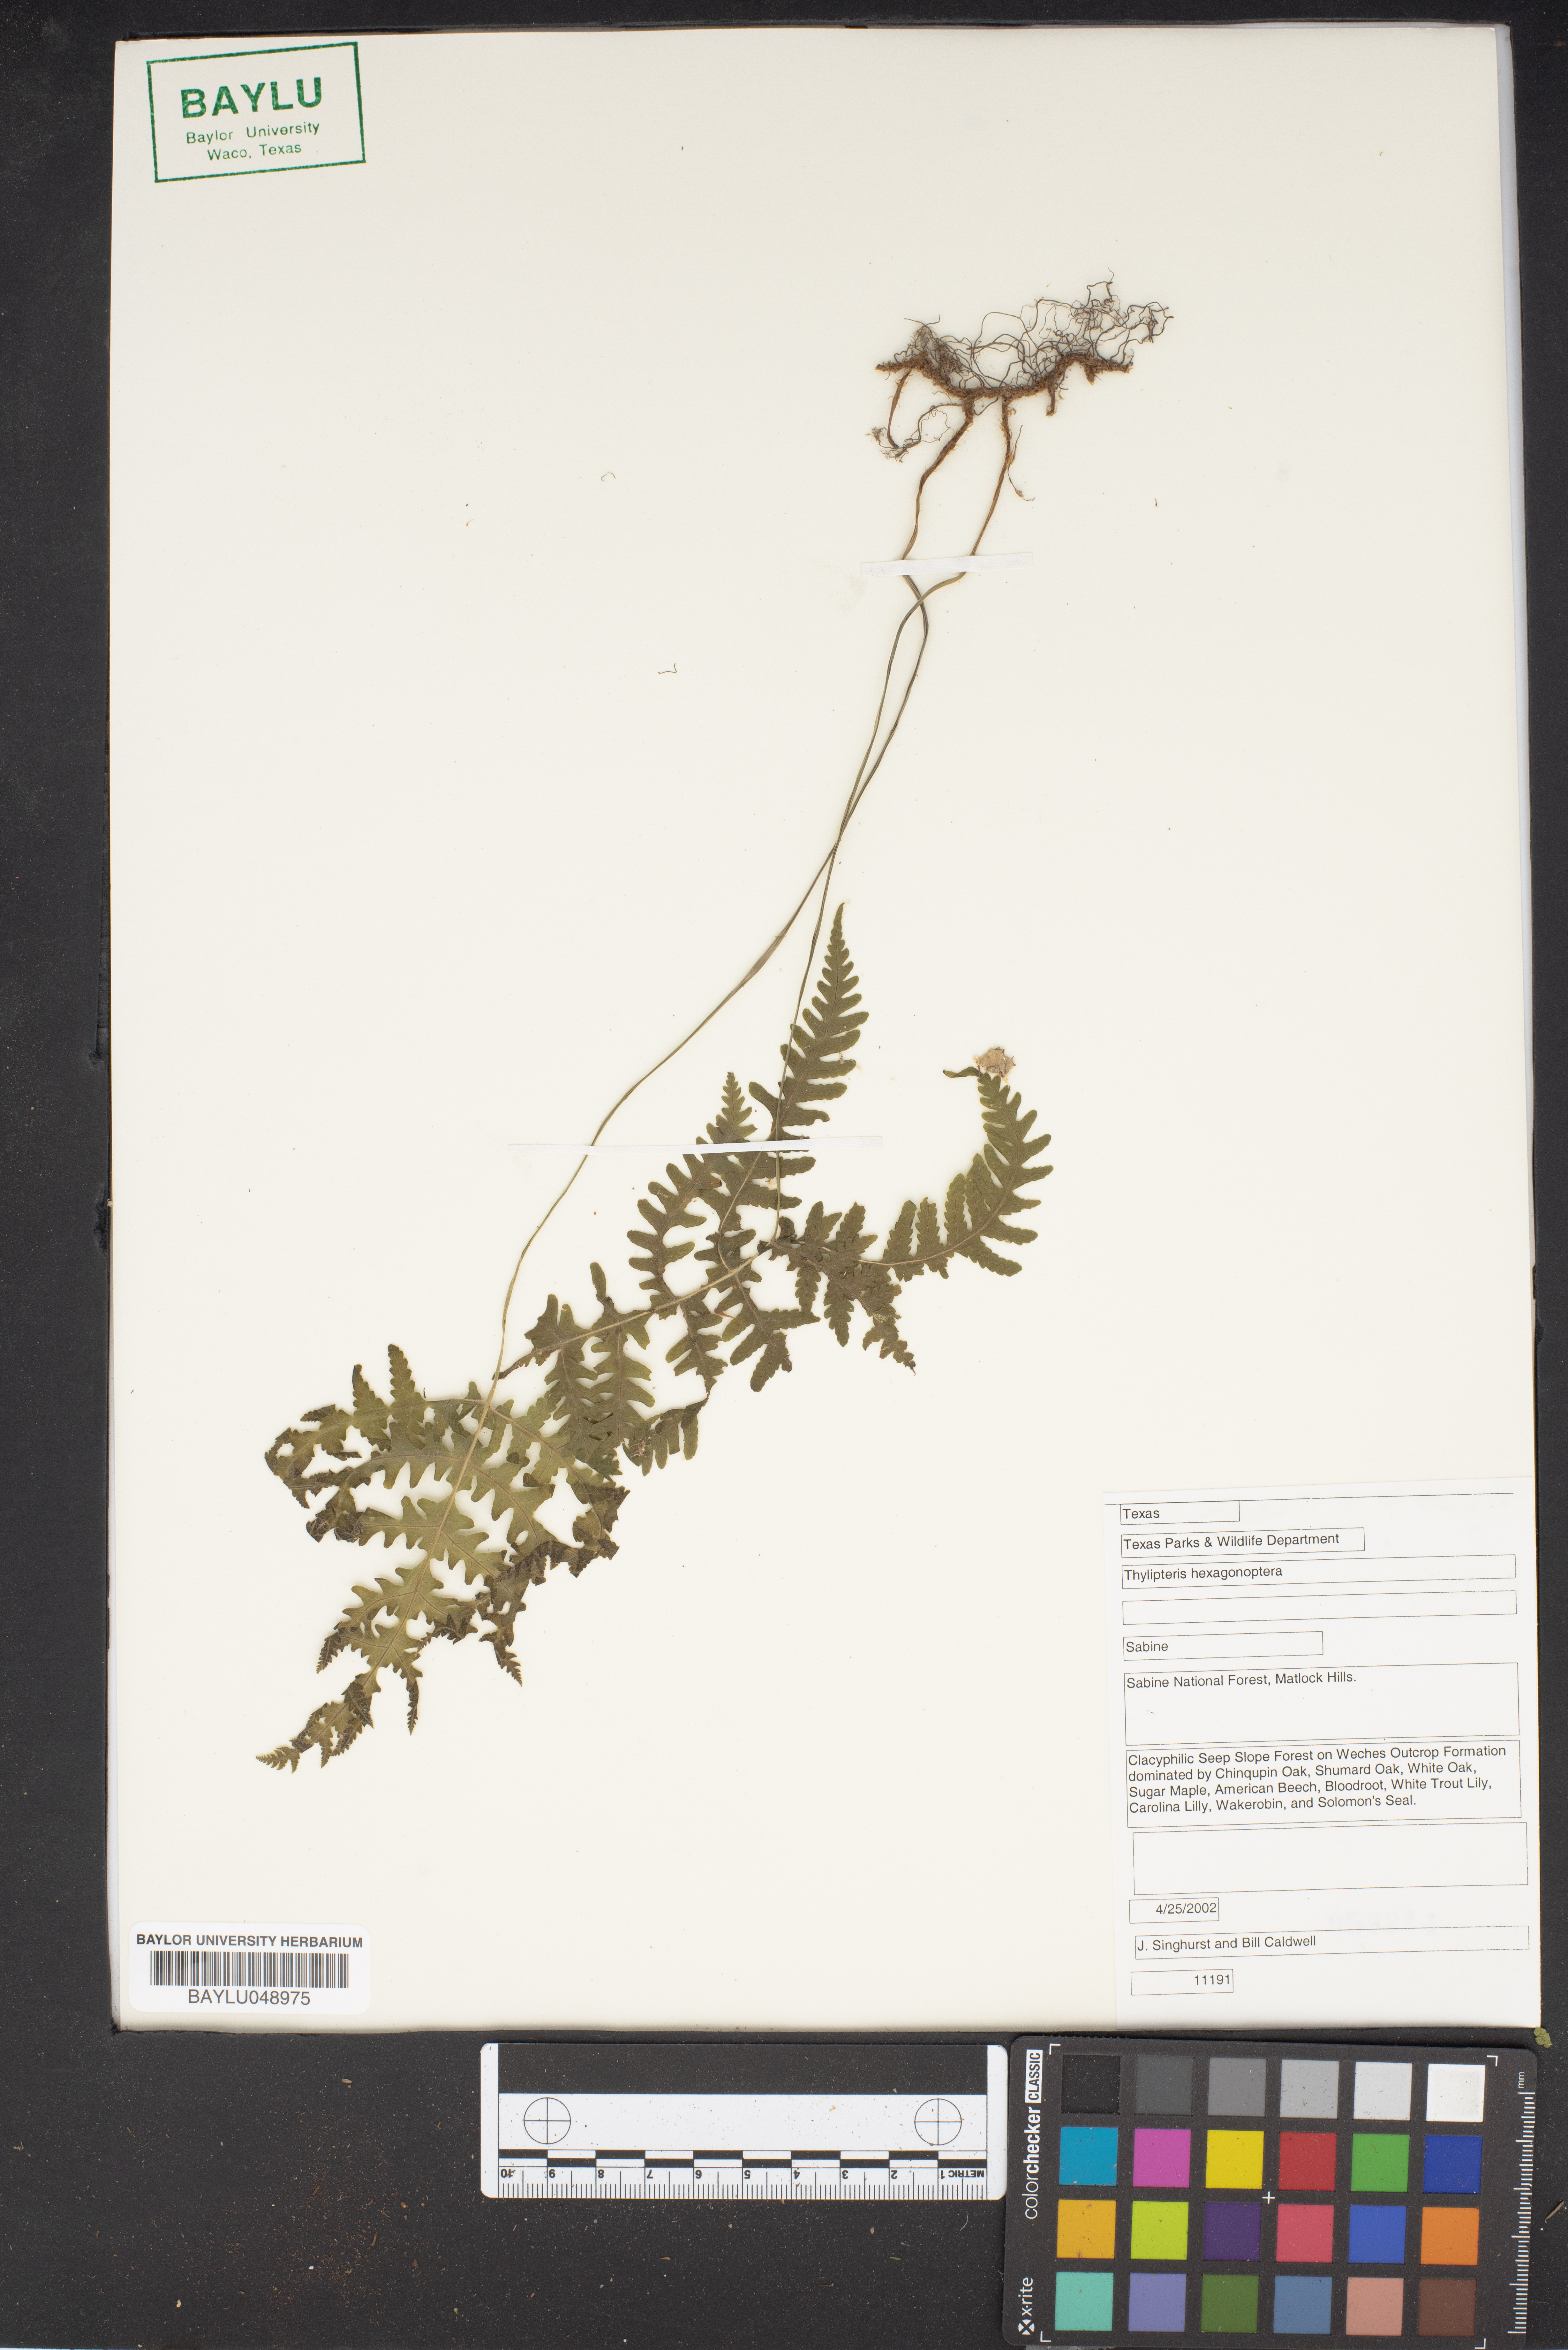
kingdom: Plantae
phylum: Tracheophyta
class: Polypodiopsida
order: Polypodiales
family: Thelypteridaceae
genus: Phegopteris
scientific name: Phegopteris hexagonoptera
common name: Broad beech fern
